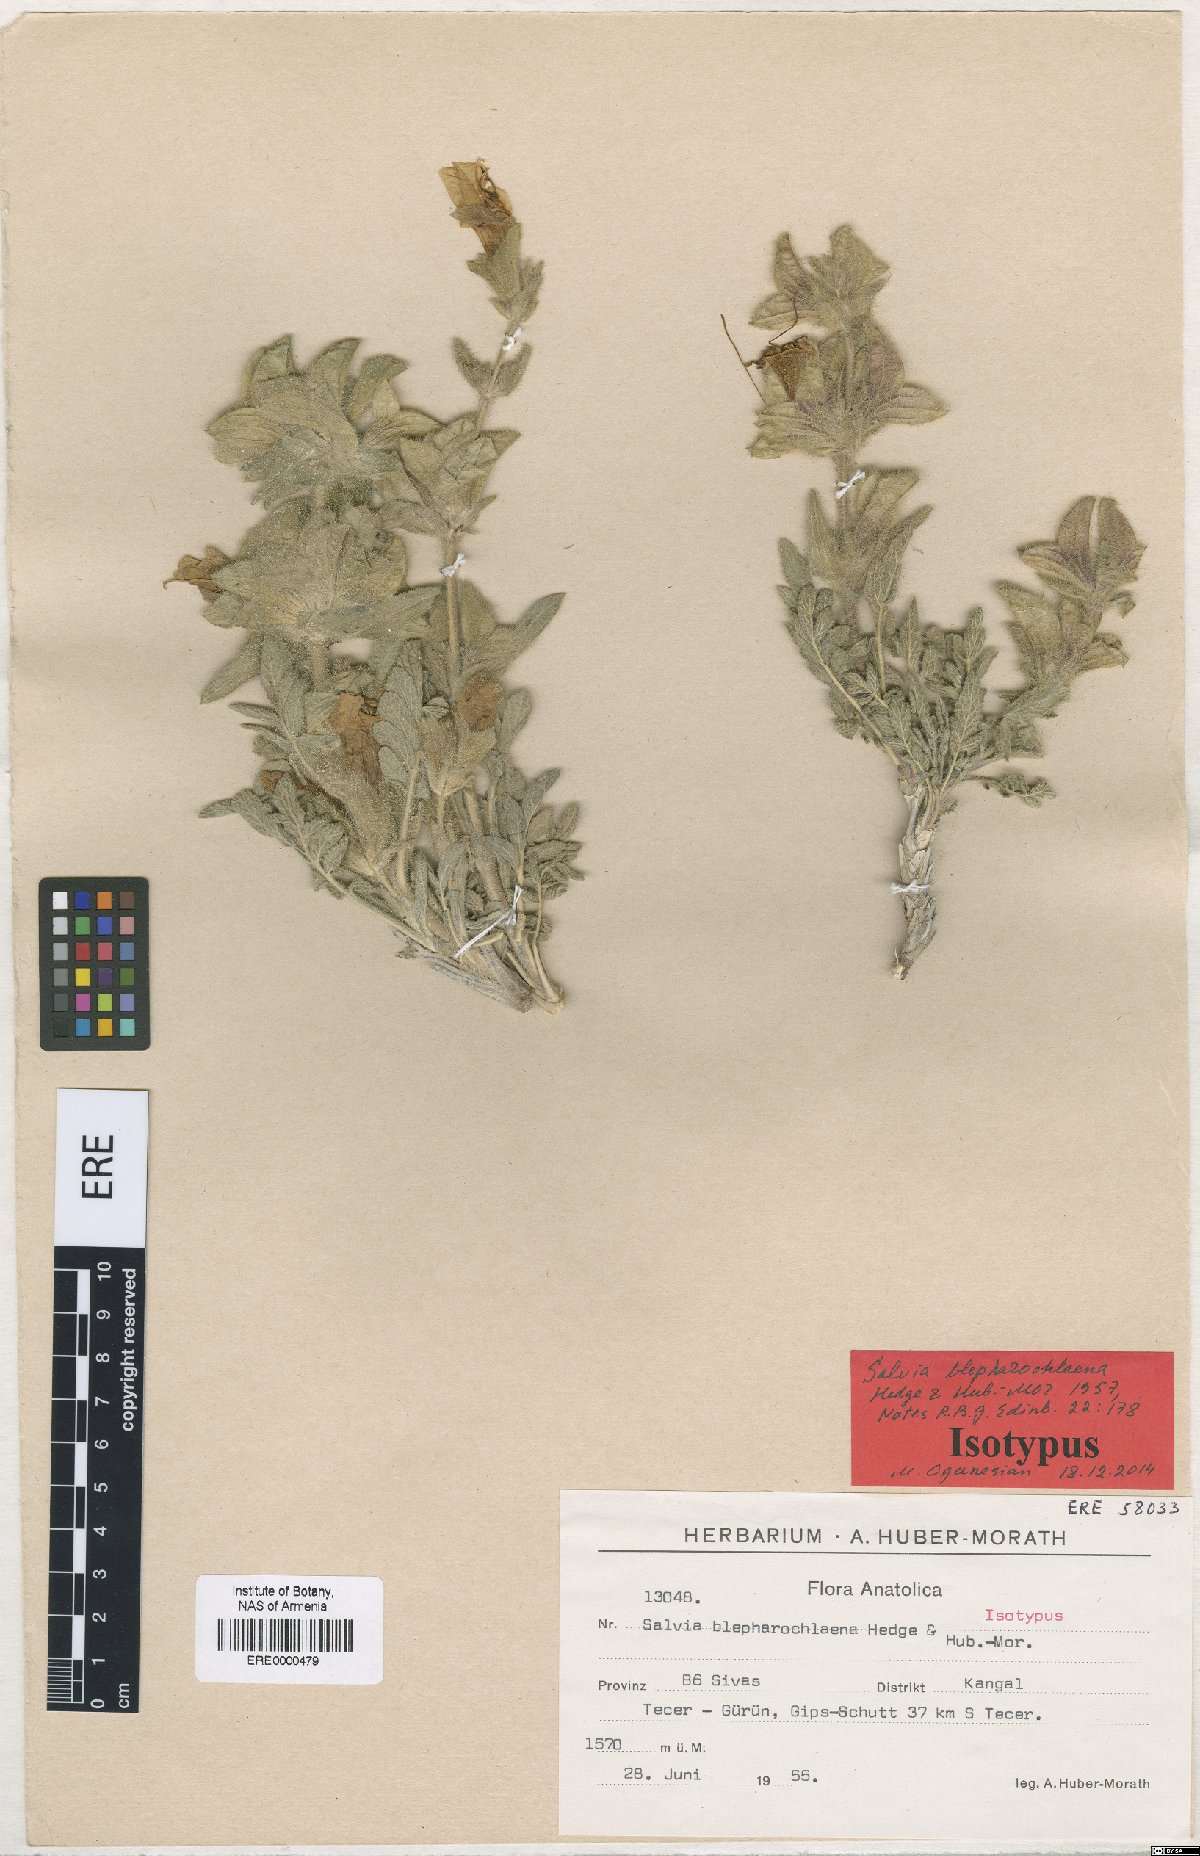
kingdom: Plantae
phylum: Tracheophyta
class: Magnoliopsida
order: Lamiales
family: Lamiaceae
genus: Salvia
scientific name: Salvia blepharochlaena
